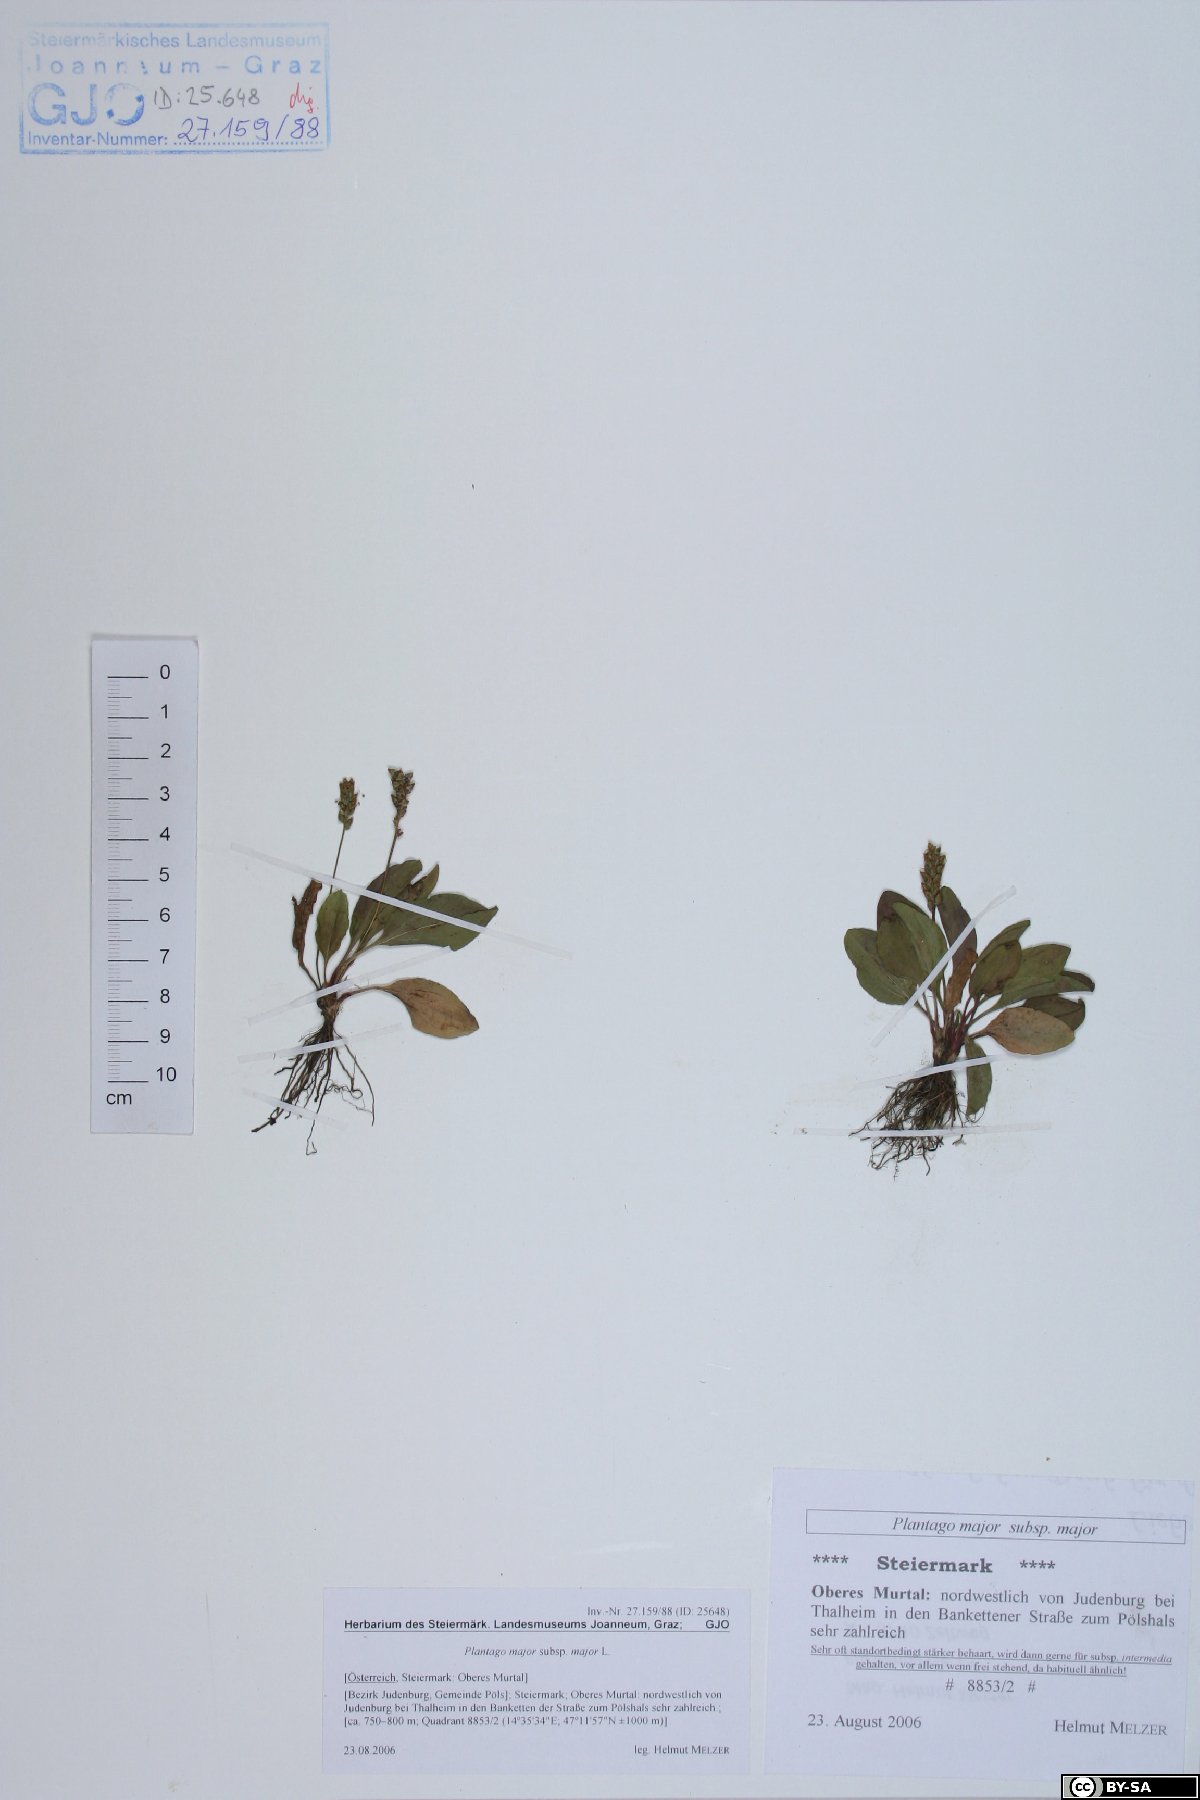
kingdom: Plantae
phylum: Tracheophyta
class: Magnoliopsida
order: Lamiales
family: Plantaginaceae
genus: Plantago
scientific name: Plantago major
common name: Common plantain
